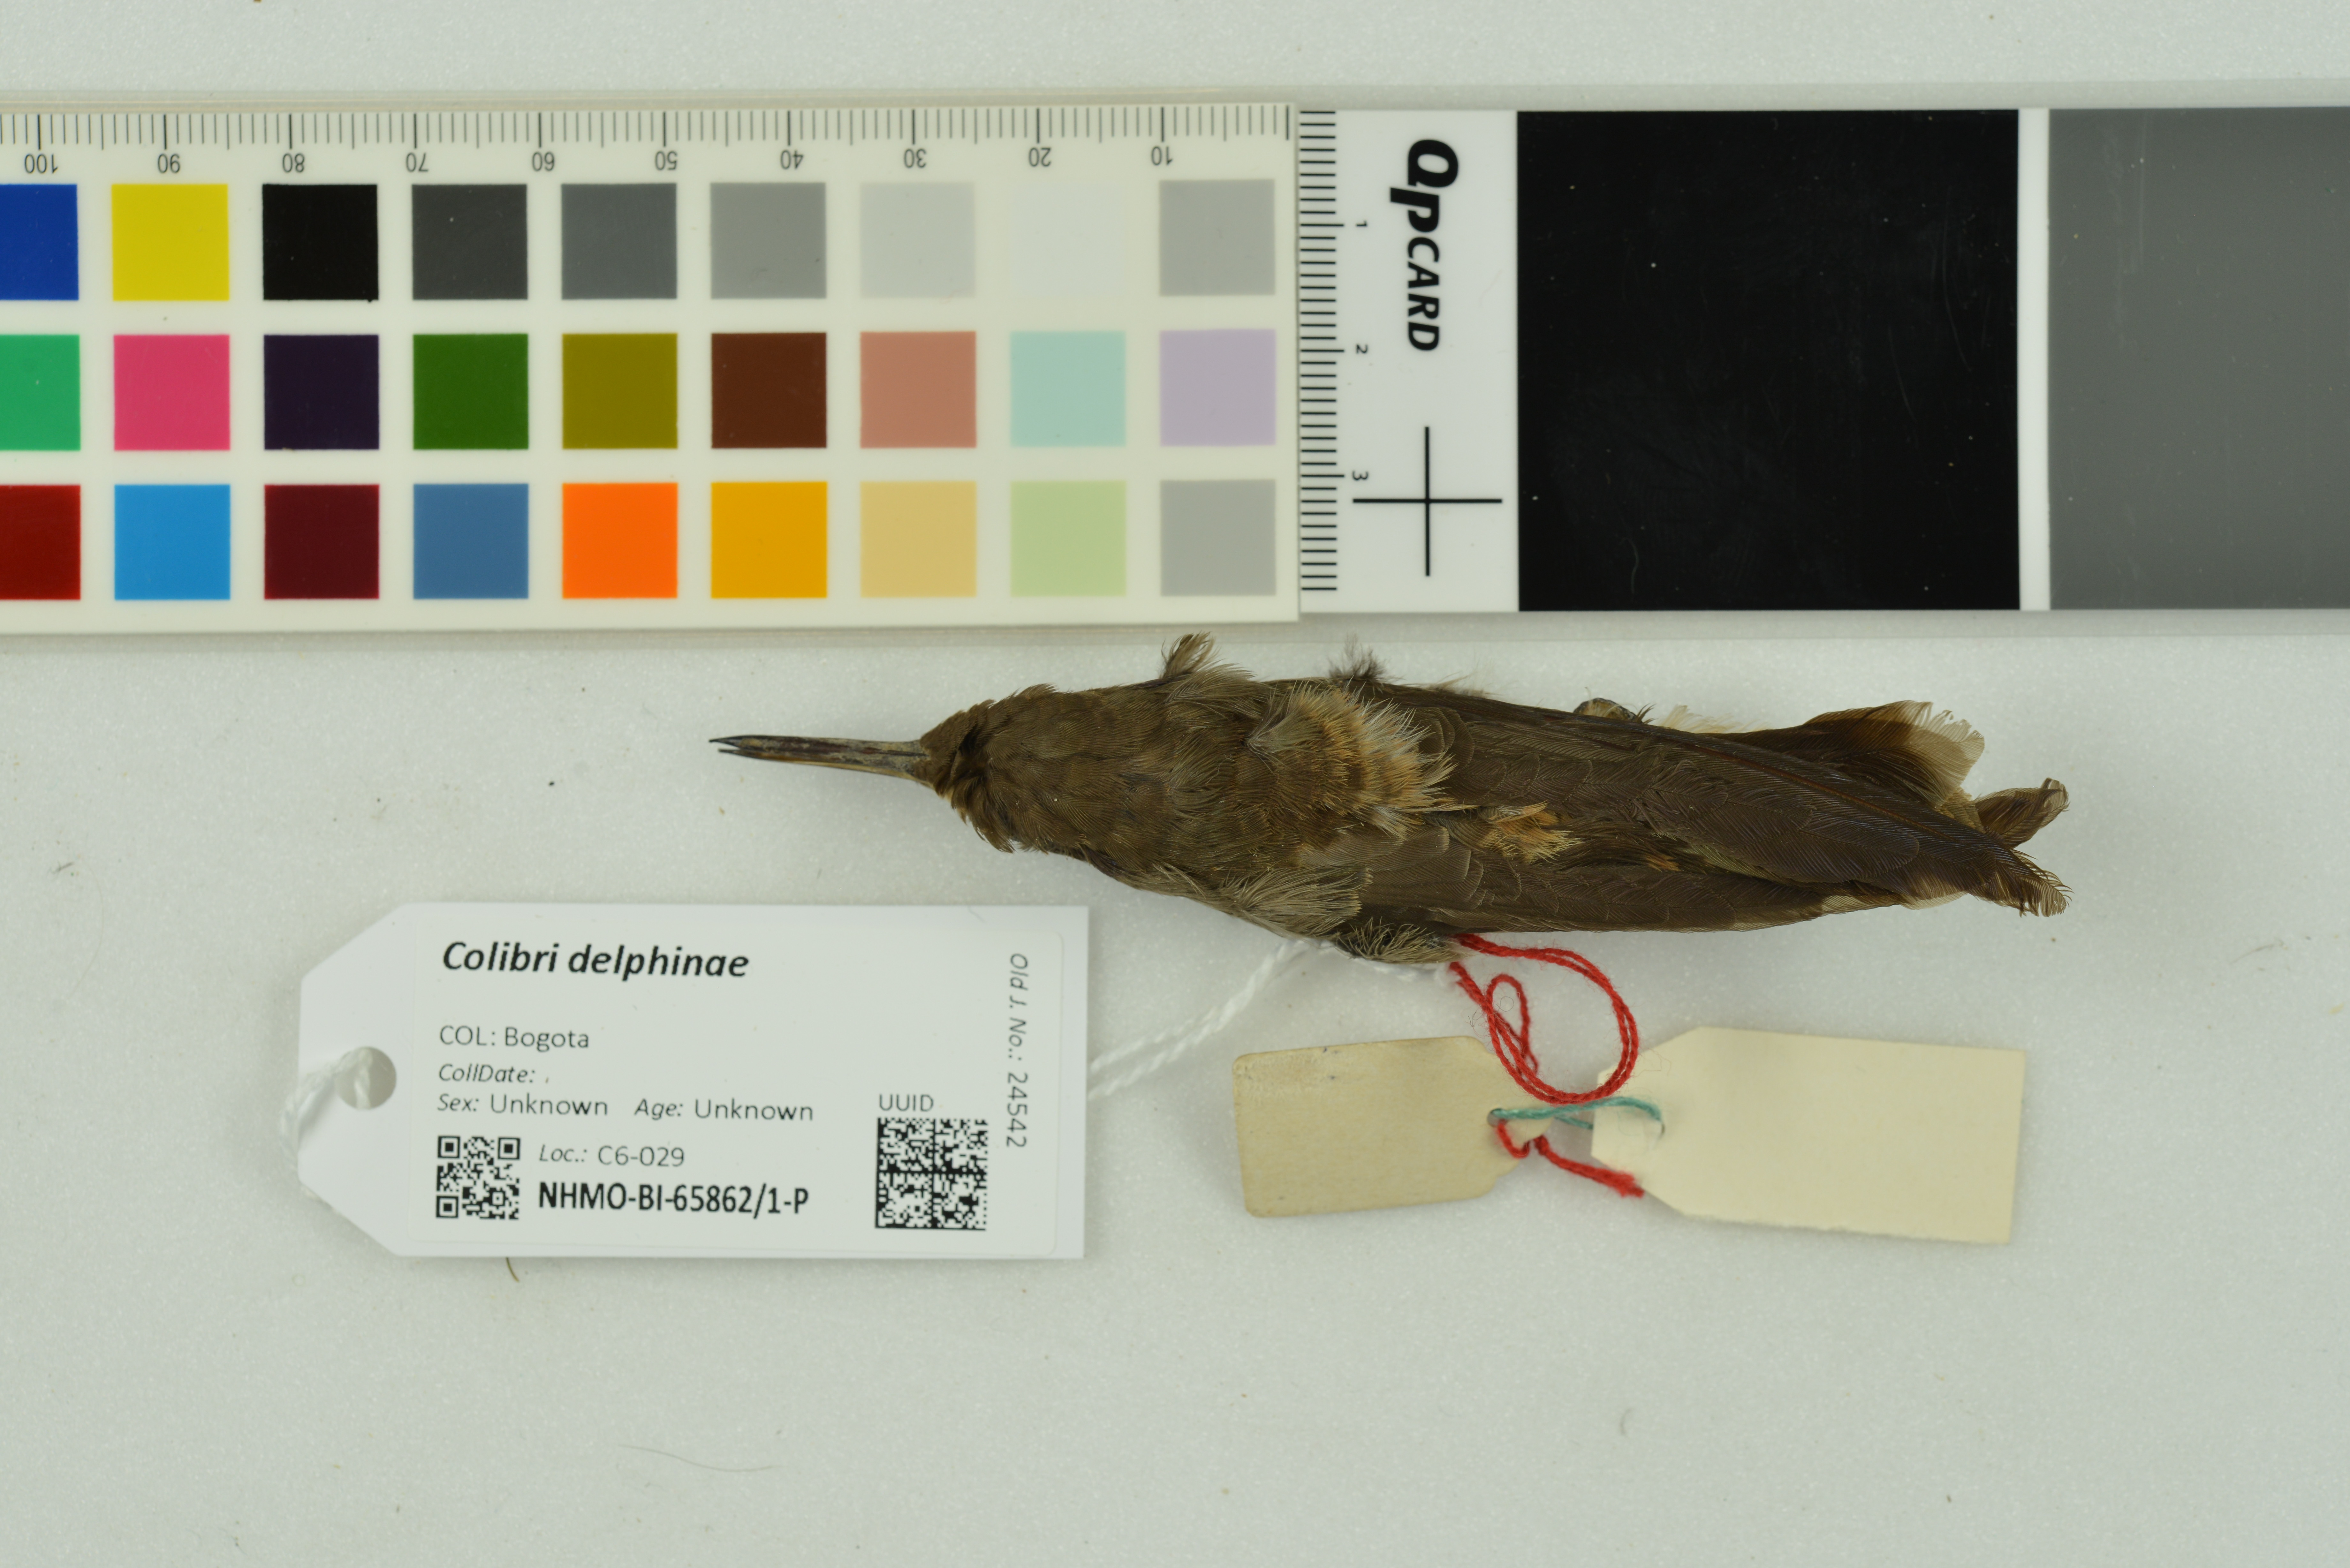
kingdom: Animalia
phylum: Chordata
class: Aves
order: Apodiformes
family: Trochilidae
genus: Colibri
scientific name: Colibri delphinae
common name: Brown violetear
